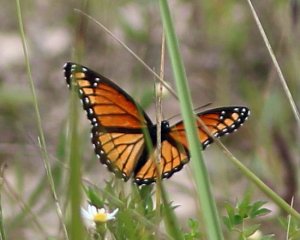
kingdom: Animalia
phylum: Arthropoda
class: Insecta
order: Lepidoptera
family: Nymphalidae
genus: Limenitis
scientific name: Limenitis archippus
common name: Viceroy
